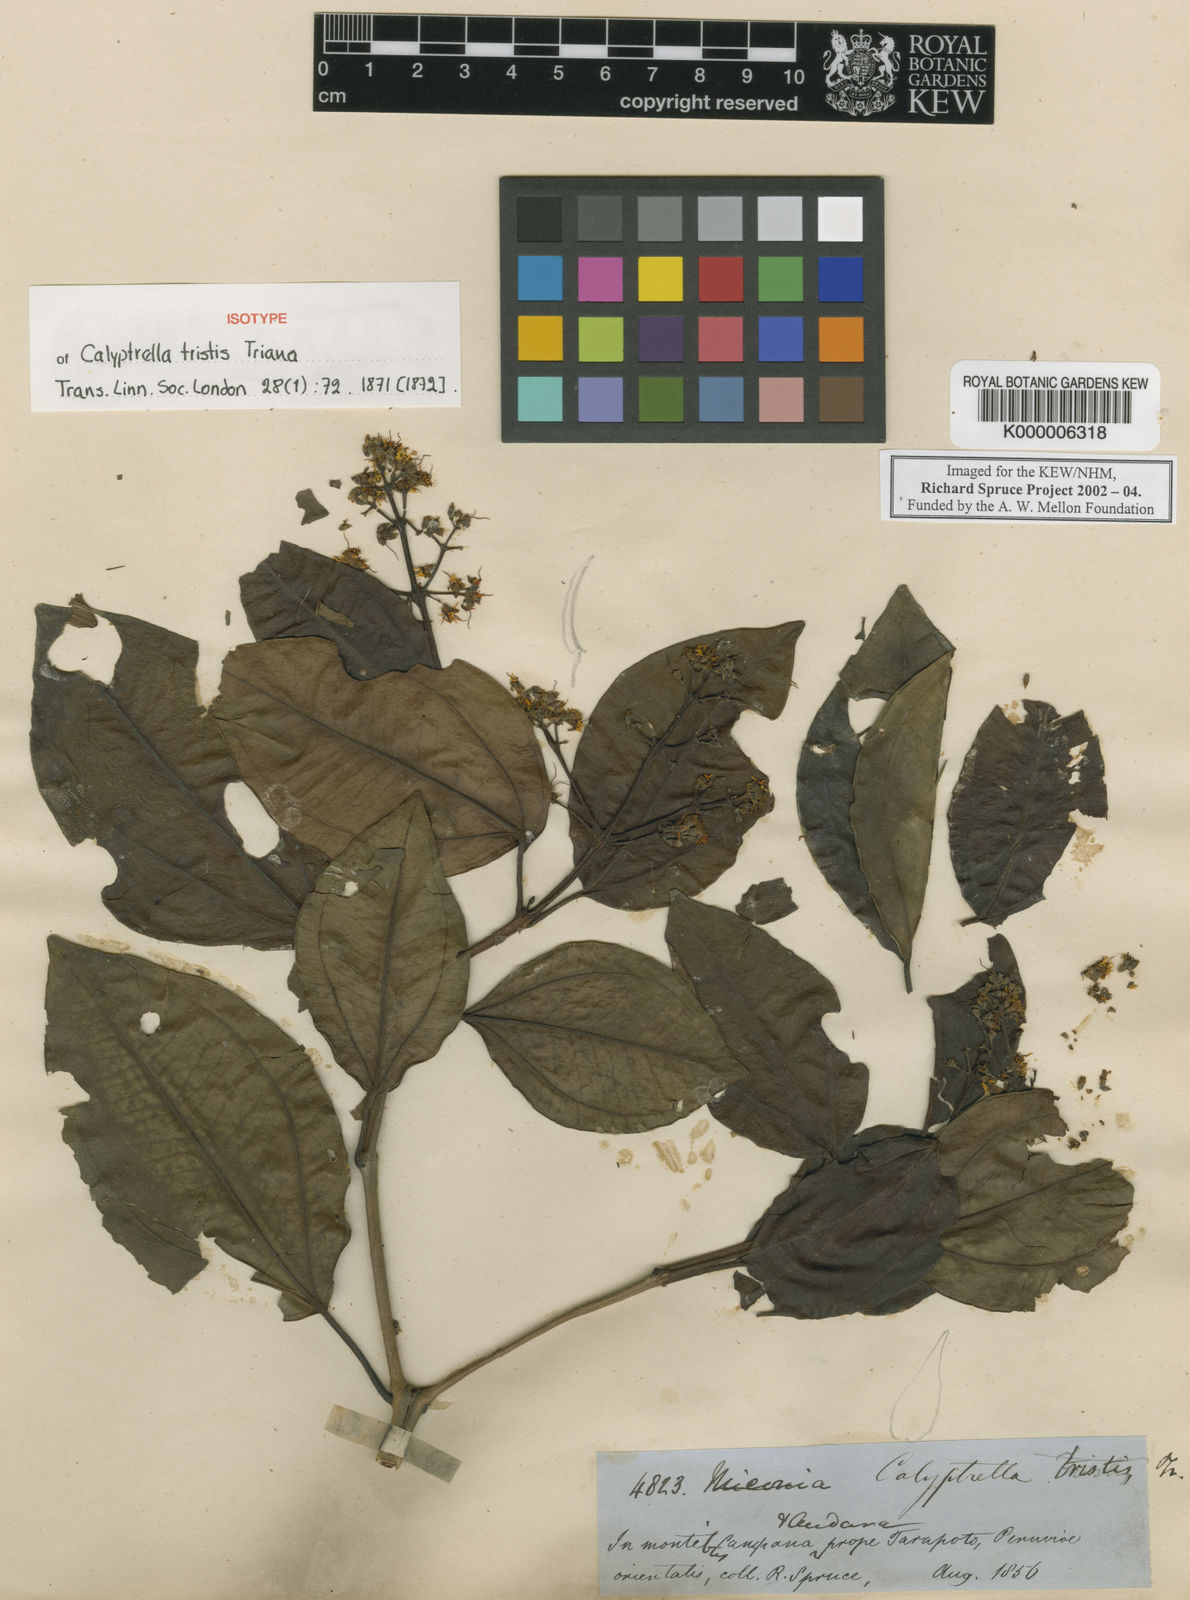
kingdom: Plantae
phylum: Tracheophyta
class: Magnoliopsida
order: Myrtales
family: Melastomataceae
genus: Graffenrieda
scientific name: Graffenrieda tristis
